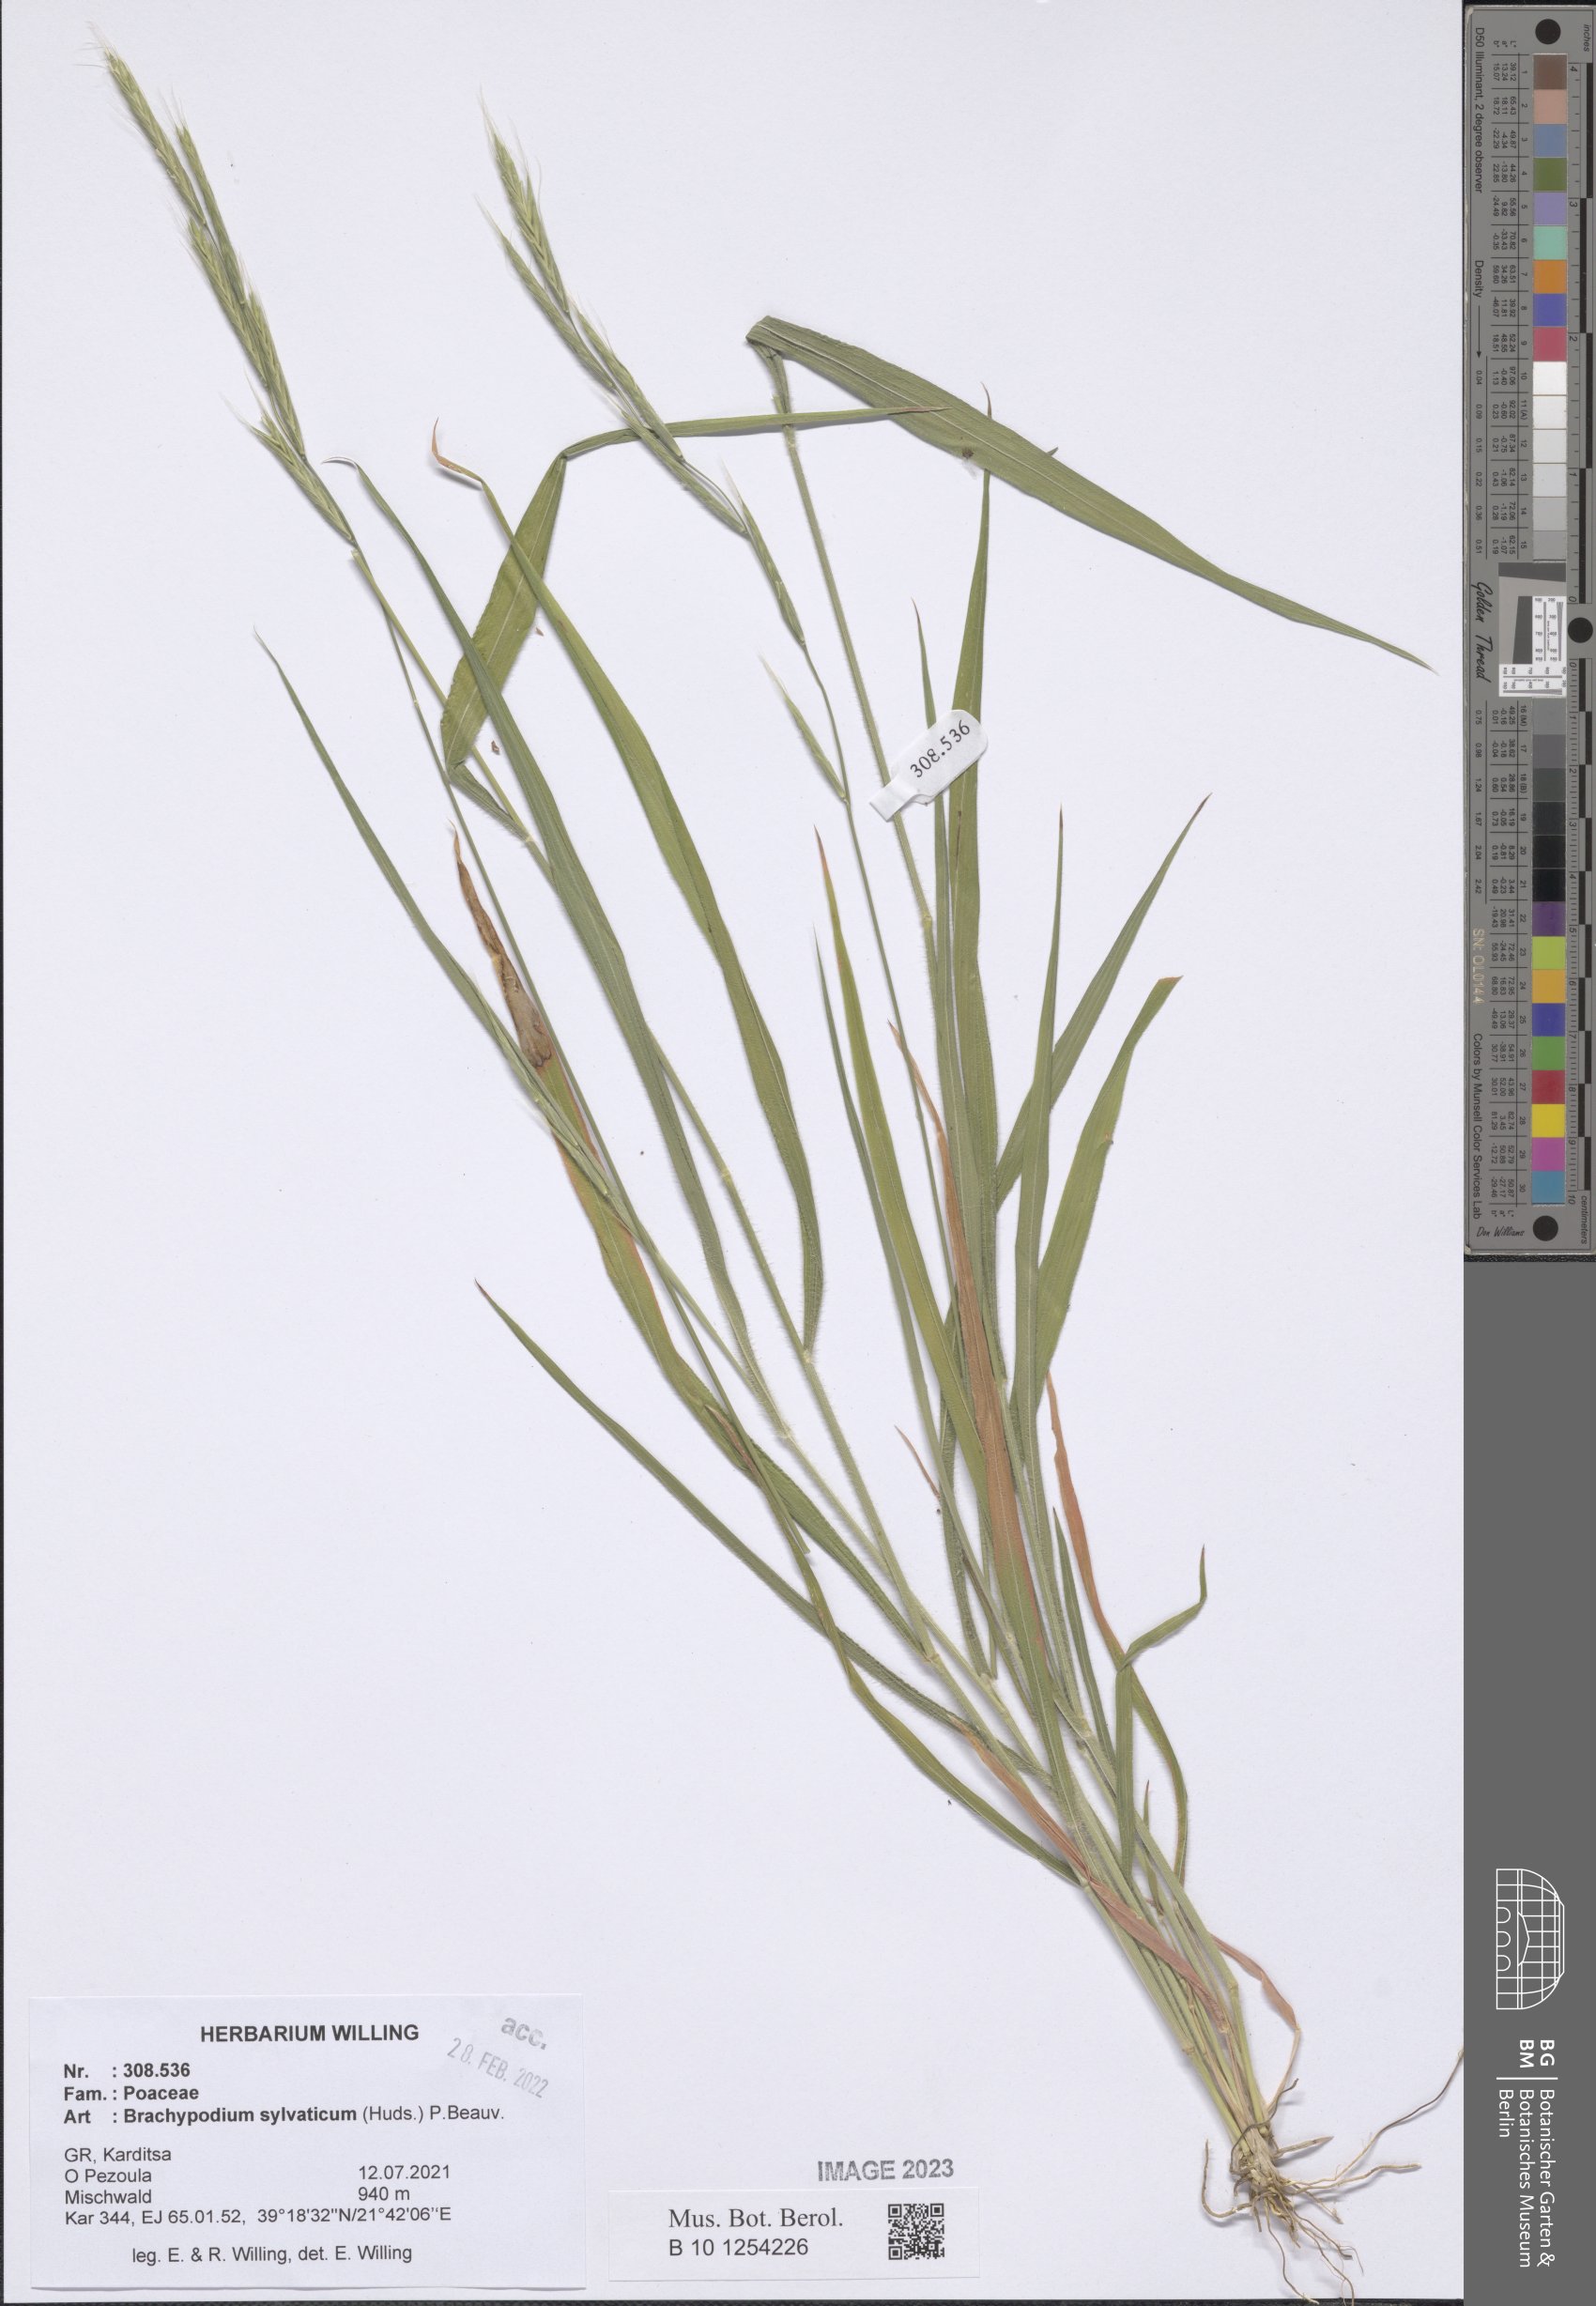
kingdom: Plantae
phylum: Tracheophyta
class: Liliopsida
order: Poales
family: Poaceae
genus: Brachypodium
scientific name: Brachypodium sylvaticum
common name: False-brome
